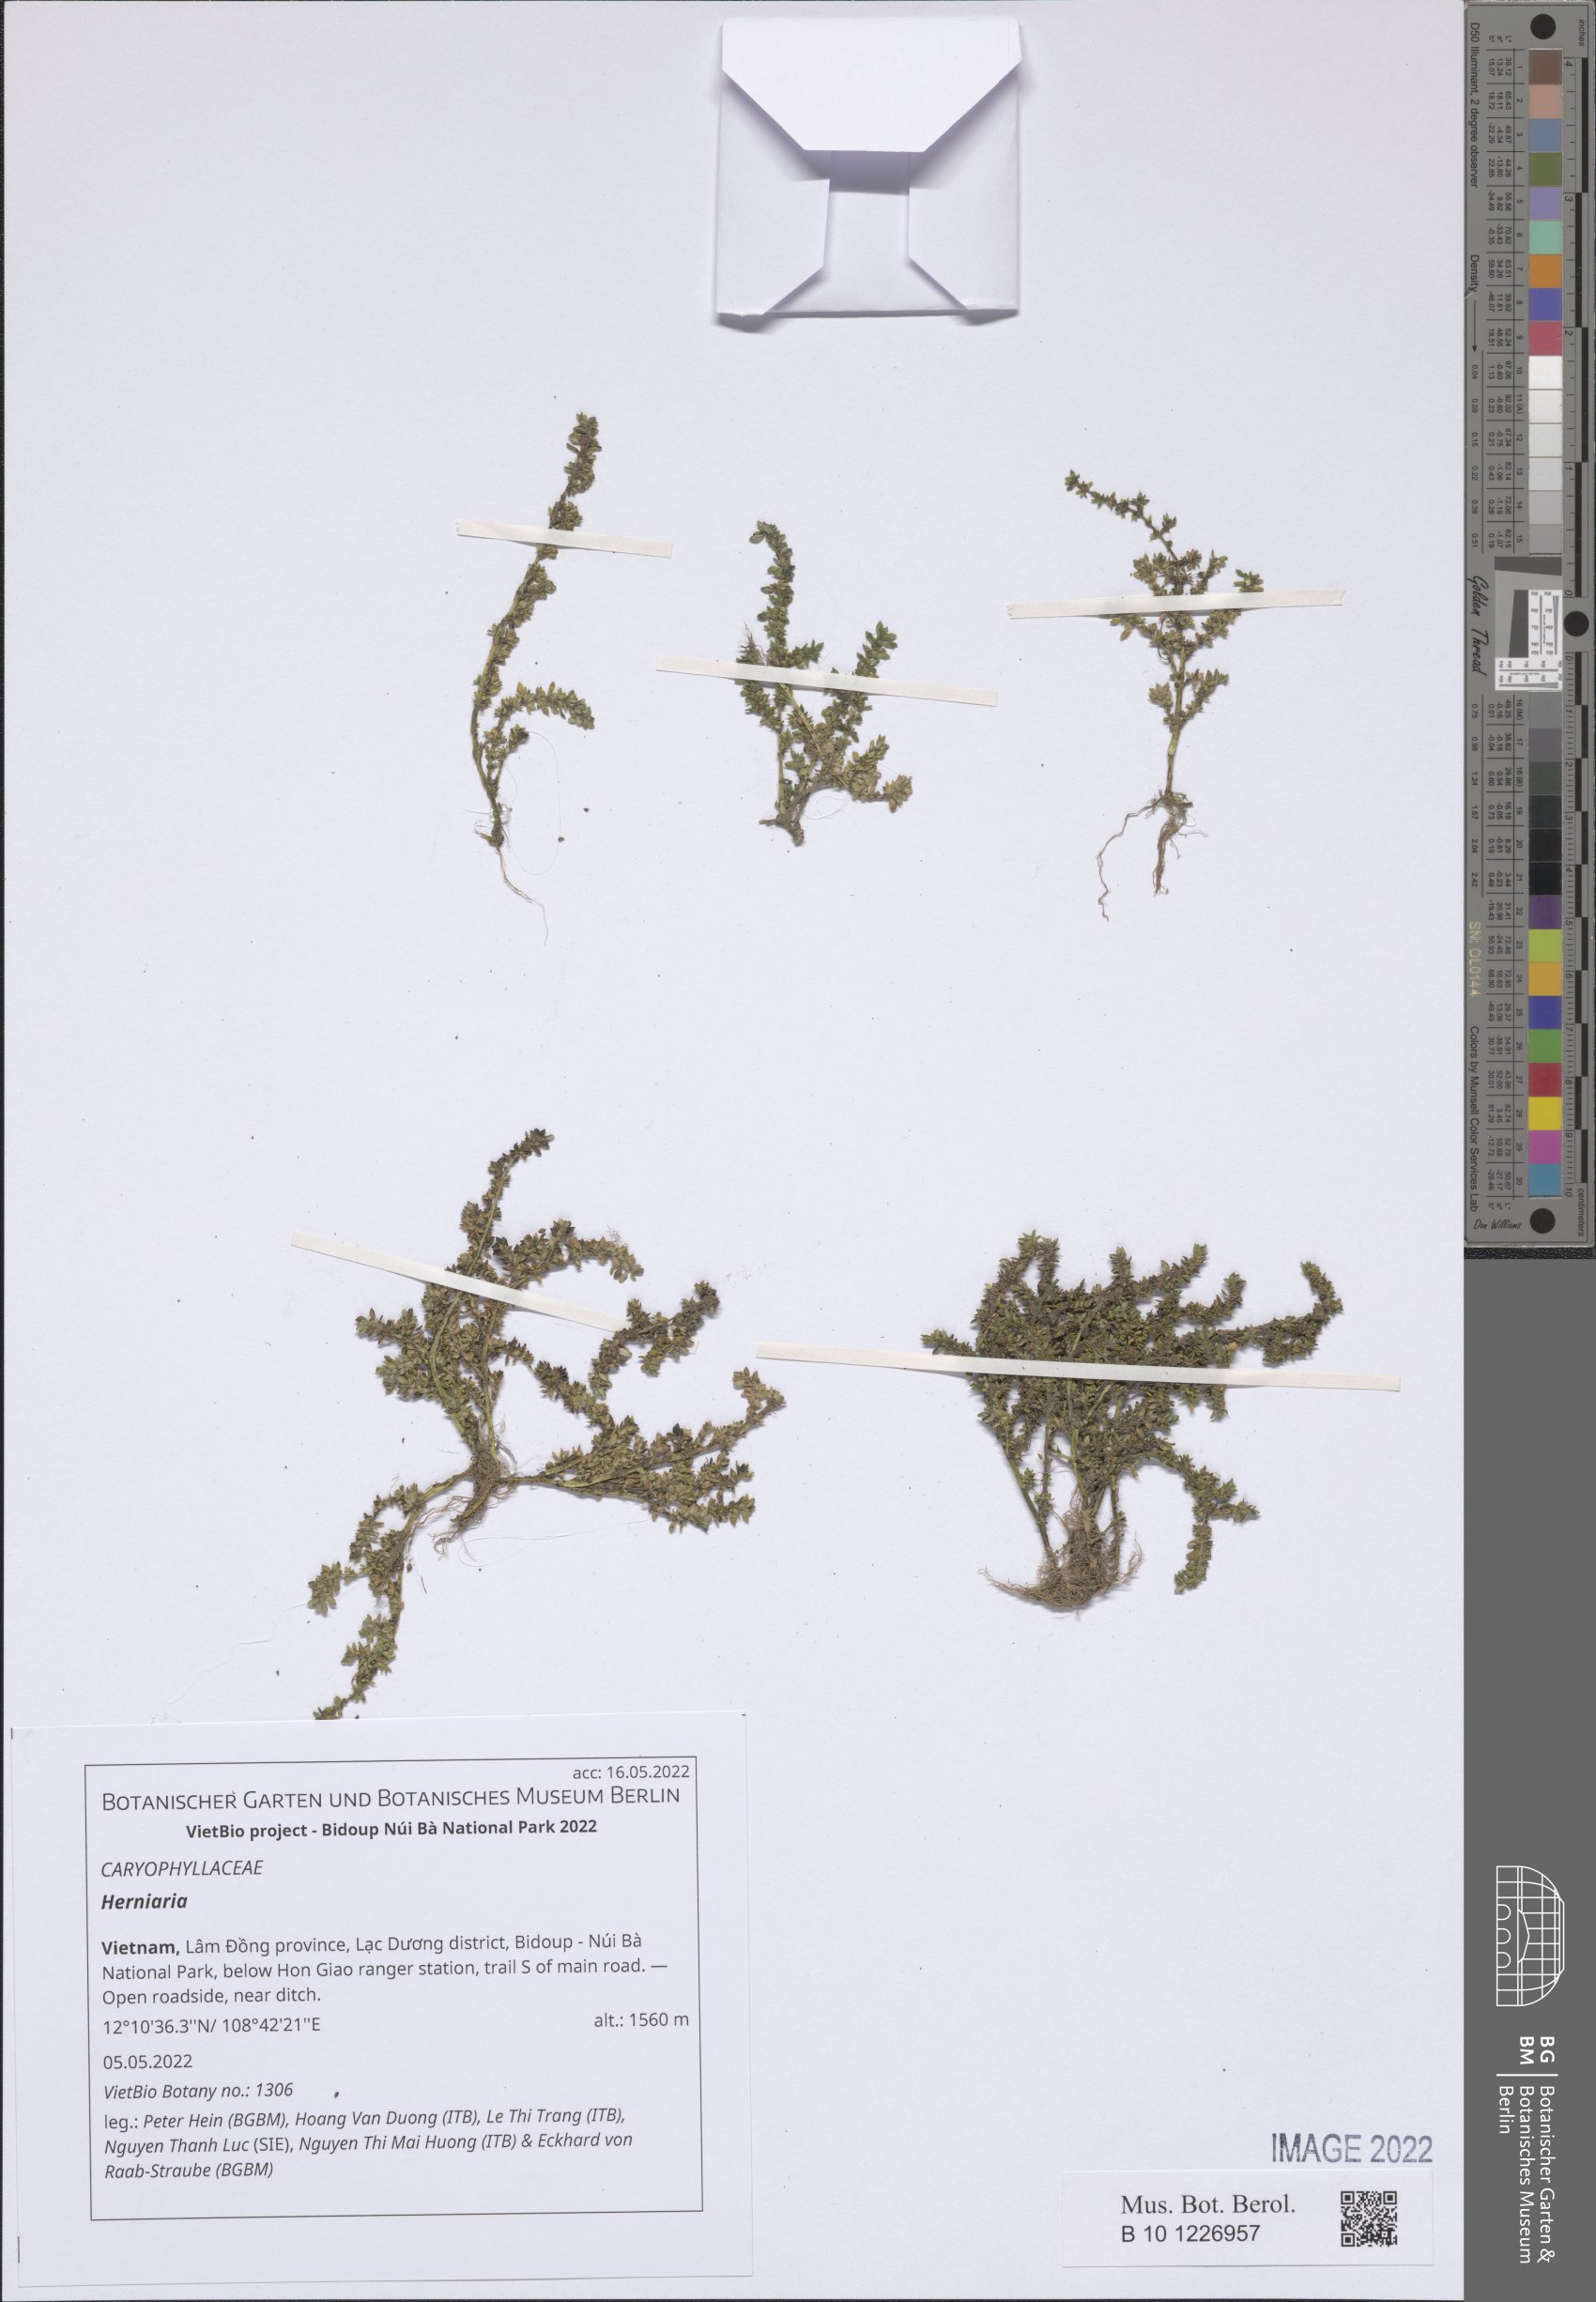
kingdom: Plantae
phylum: Tracheophyta
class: Magnoliopsida
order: Caryophyllales
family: Caryophyllaceae
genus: Herniaria
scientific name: Herniaria
